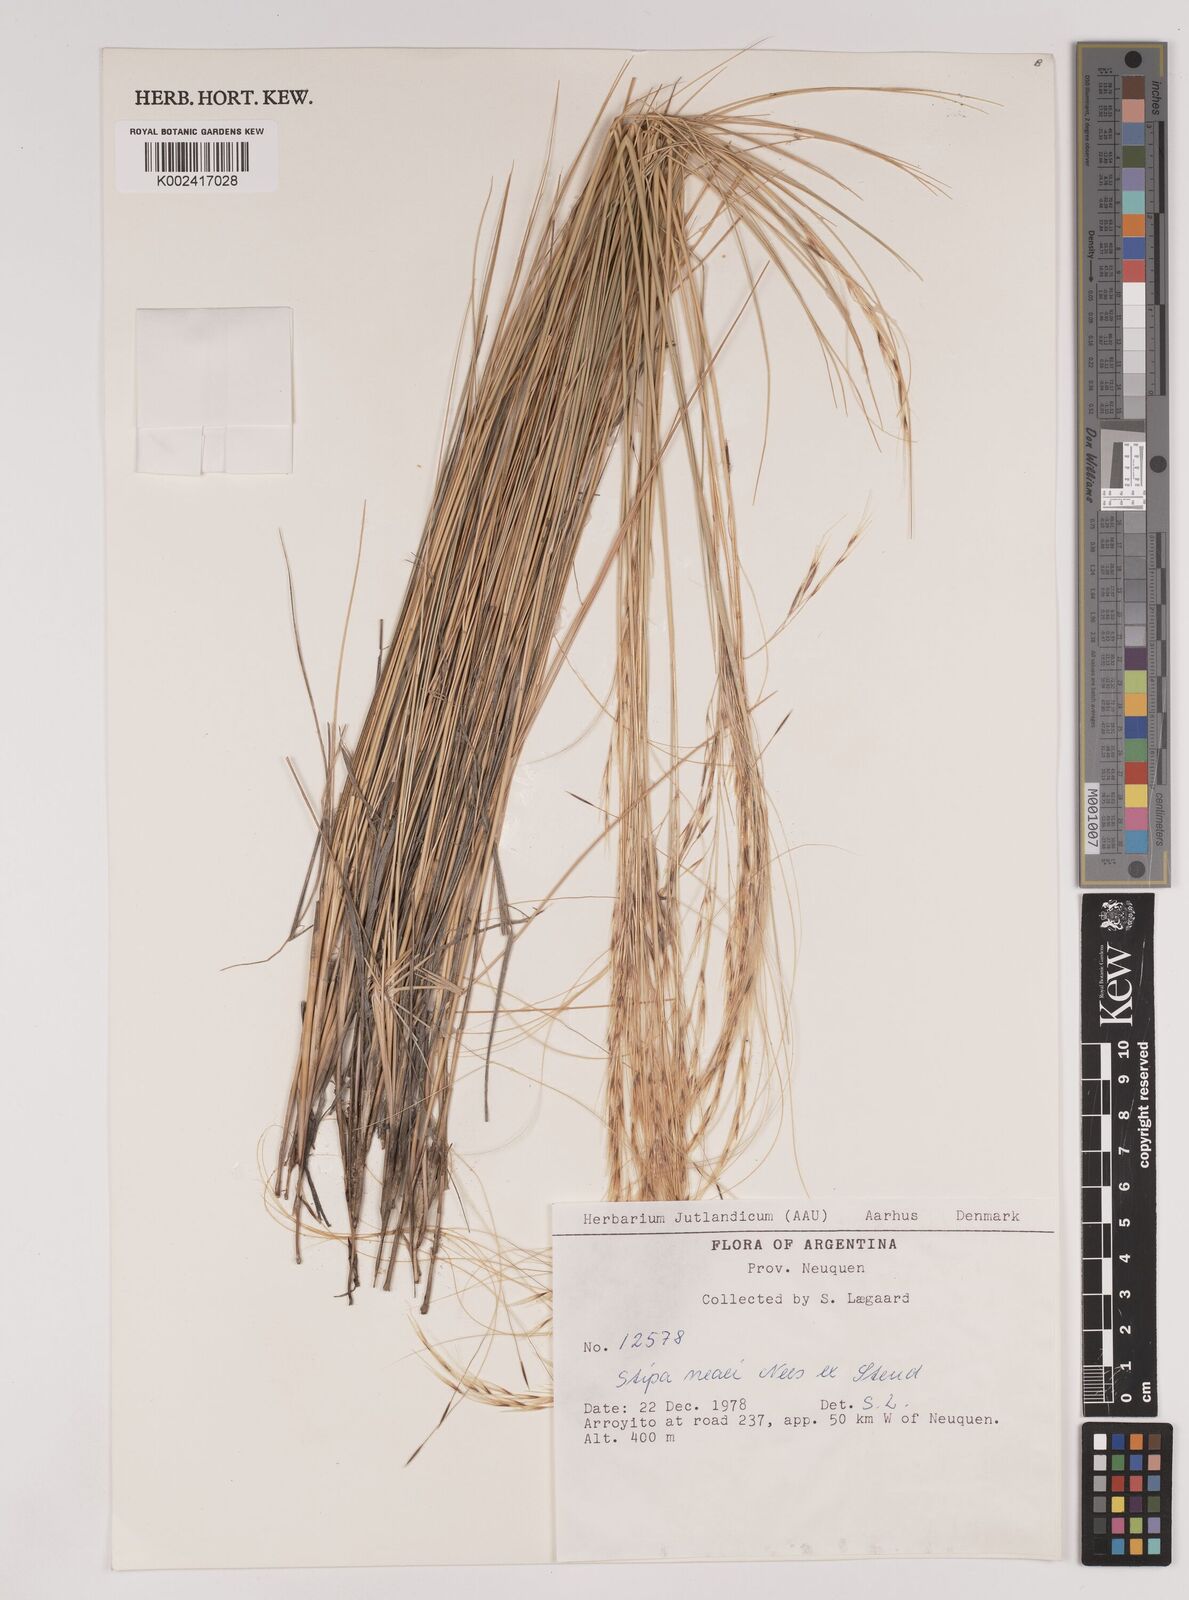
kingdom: Plantae
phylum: Tracheophyta
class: Liliopsida
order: Poales
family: Poaceae
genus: Stipa
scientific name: Stipa neaei
